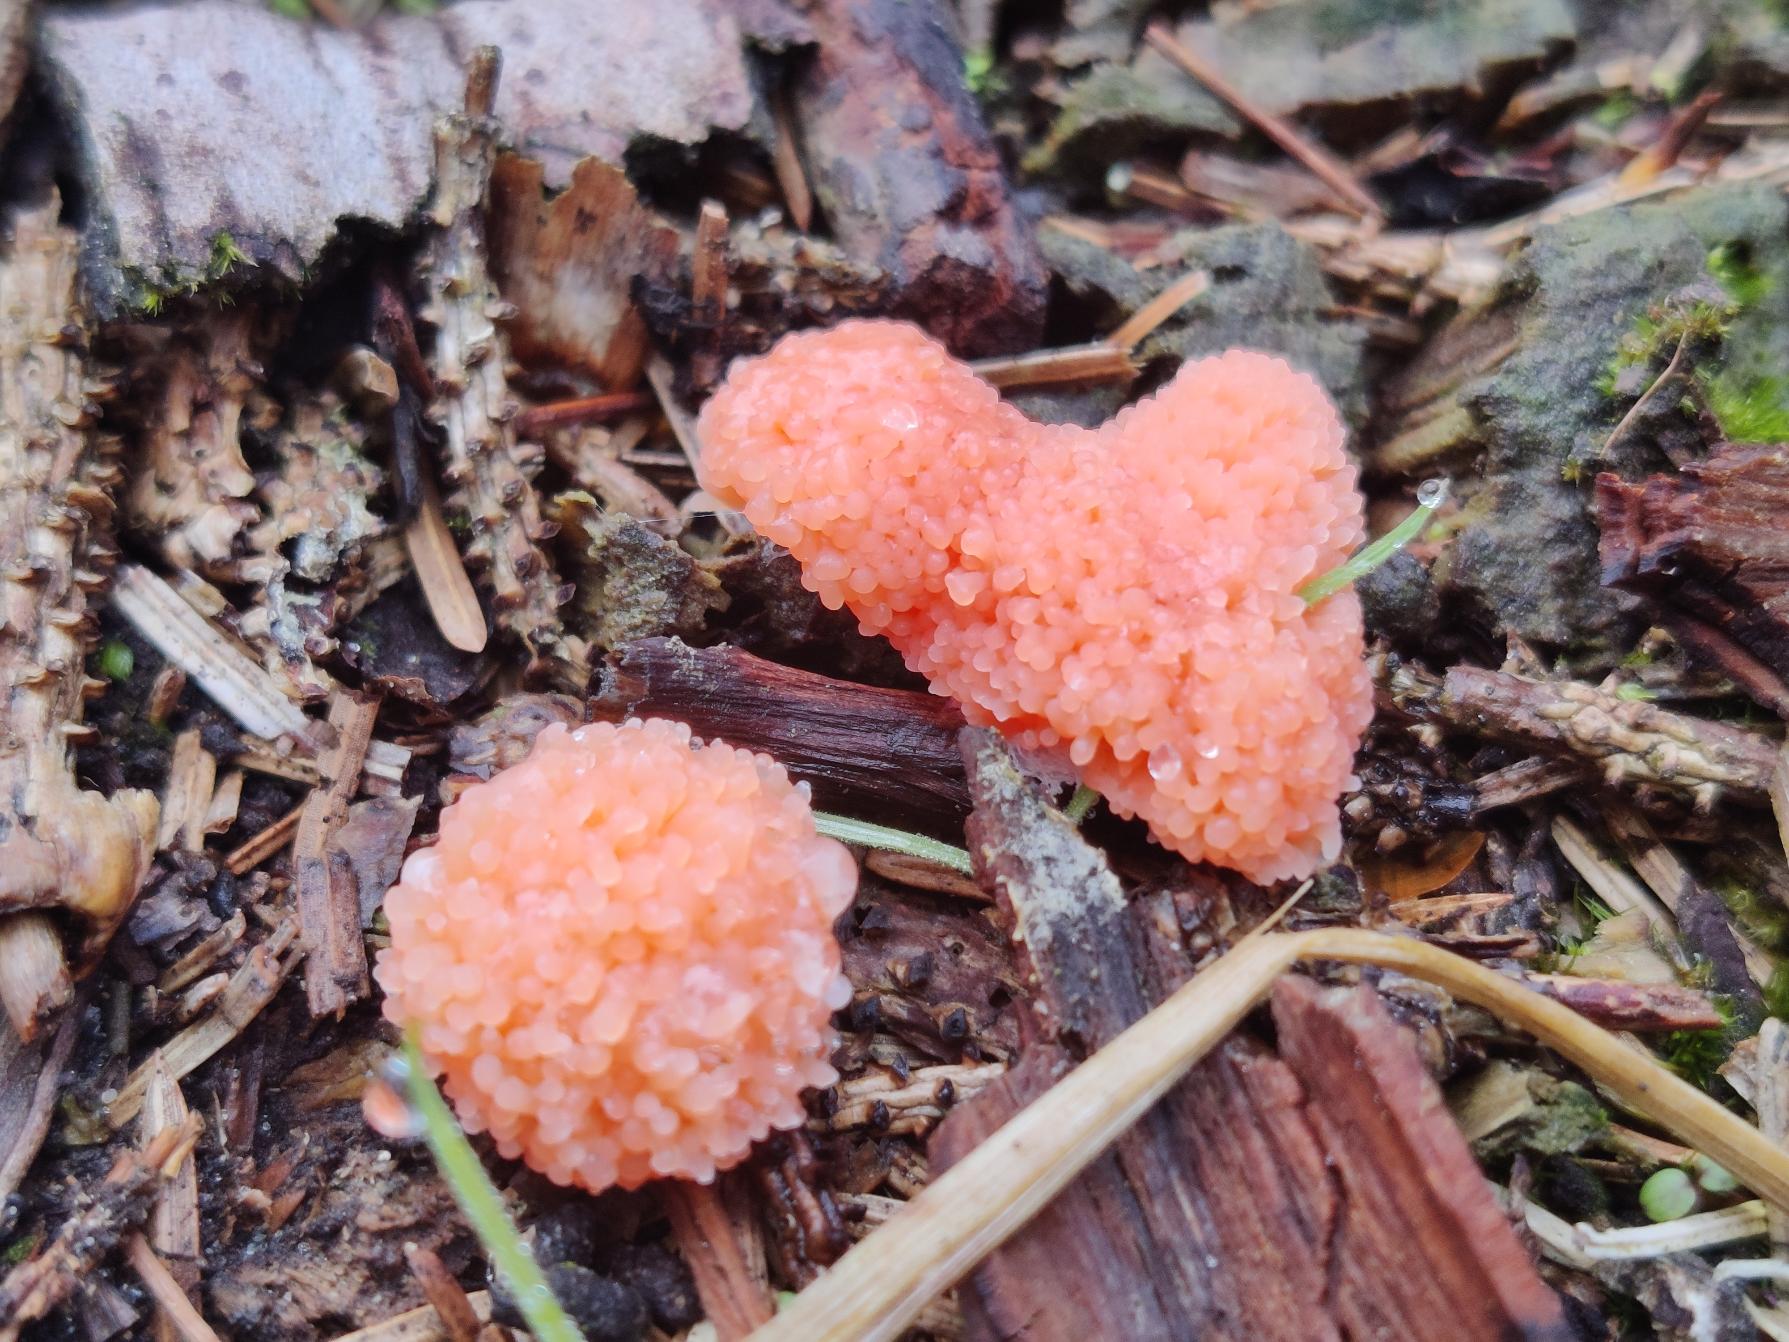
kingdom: Protozoa
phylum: Mycetozoa
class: Myxomycetes
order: Cribrariales
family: Tubiferaceae
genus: Tubifera
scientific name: Tubifera ferruginosa
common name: Kanel-støvrør
